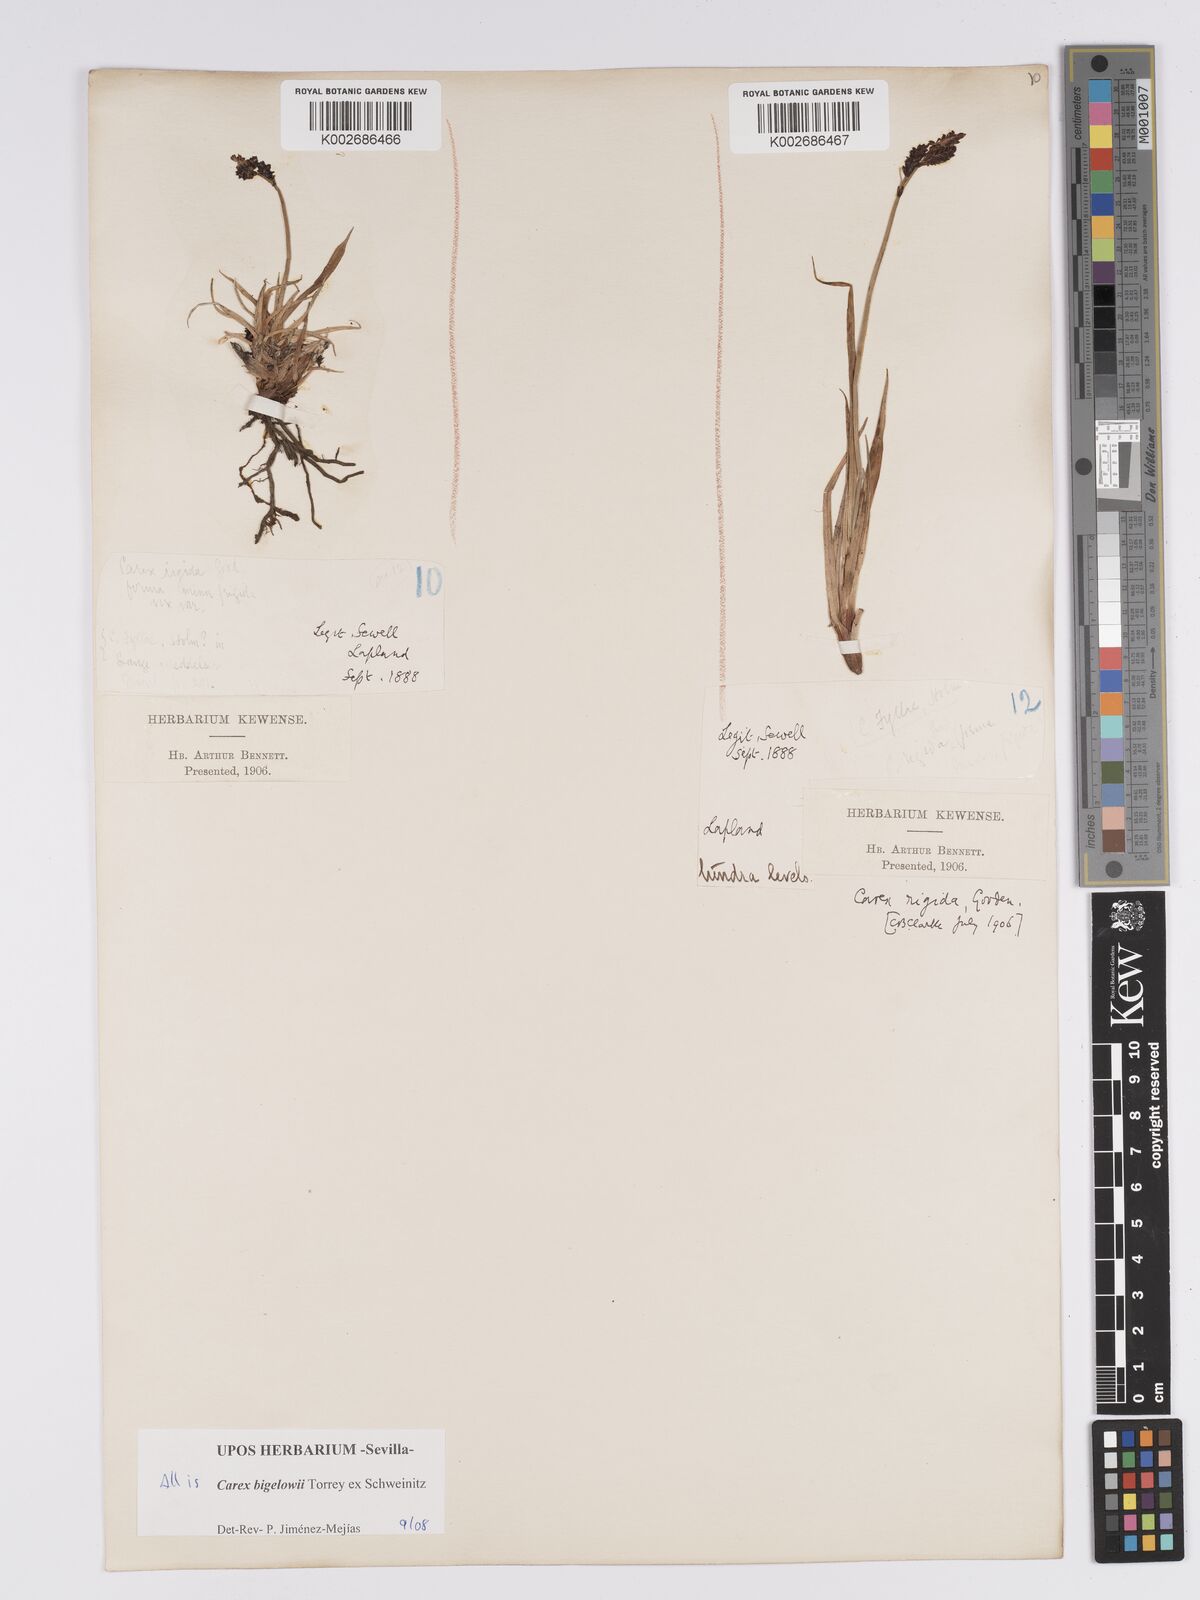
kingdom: Plantae
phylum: Tracheophyta
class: Liliopsida
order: Poales
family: Cyperaceae
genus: Carex
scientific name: Carex bigelowii
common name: Stiff sedge
